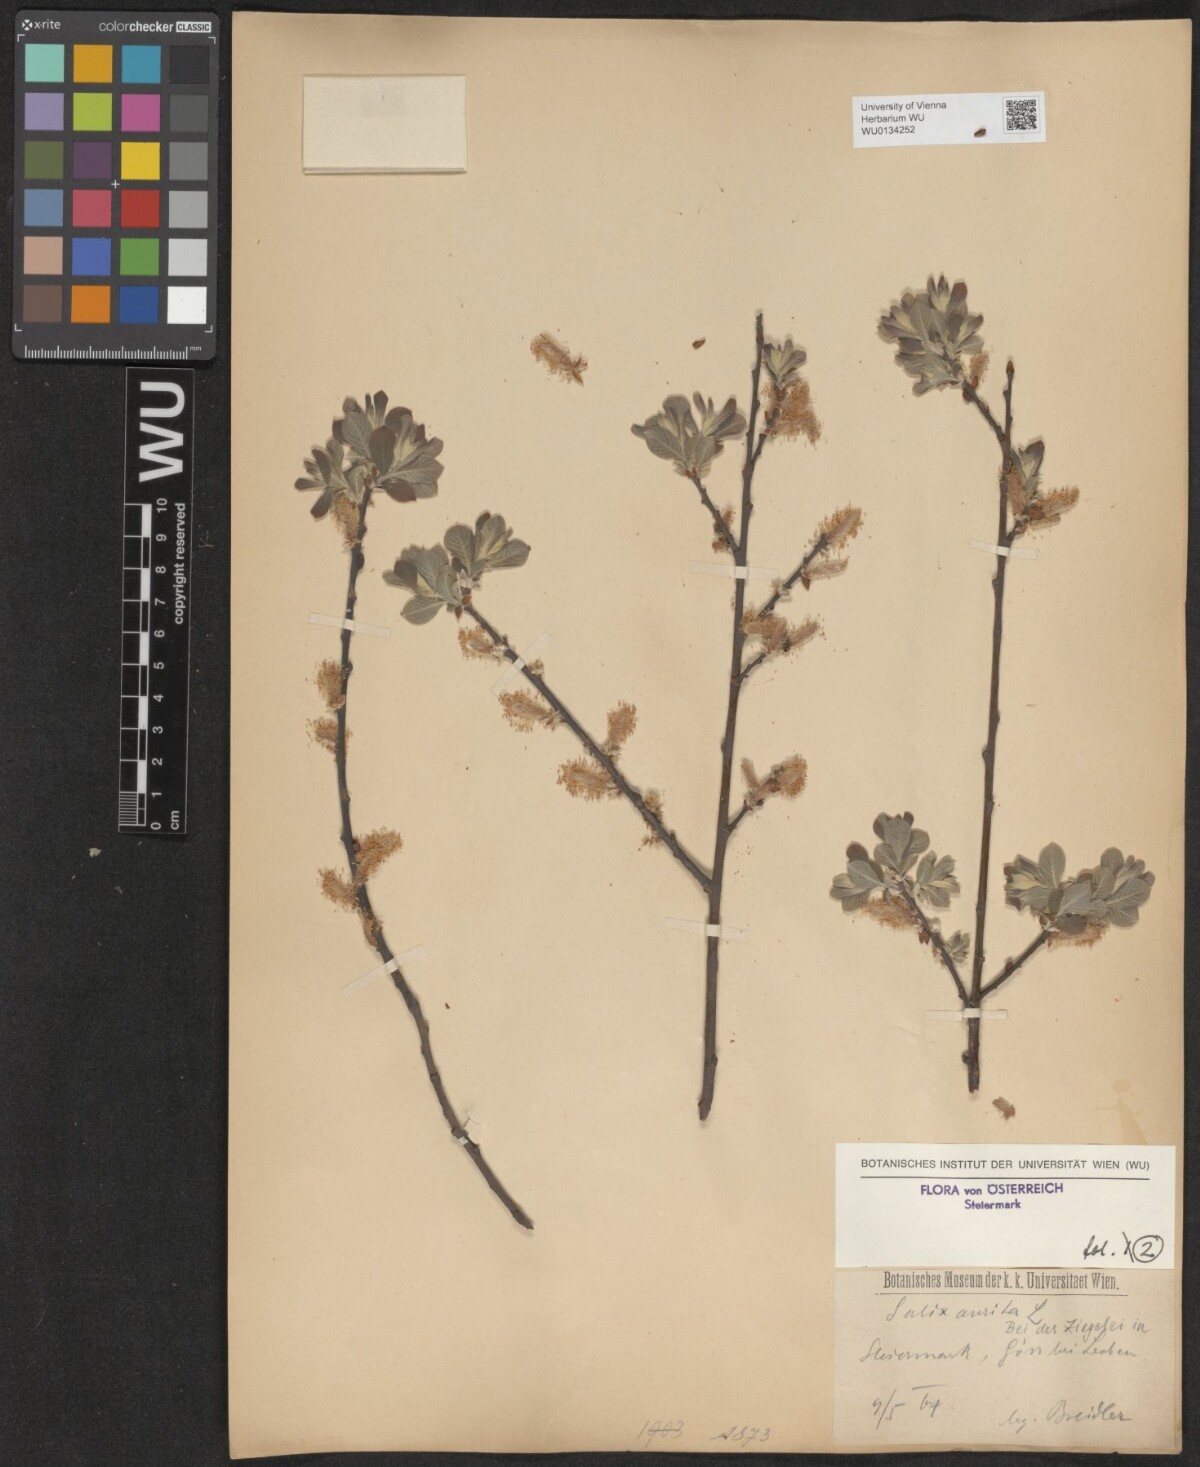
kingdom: Plantae
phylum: Tracheophyta
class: Magnoliopsida
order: Malpighiales
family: Salicaceae
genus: Salix
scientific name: Salix aurita
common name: Eared willow
